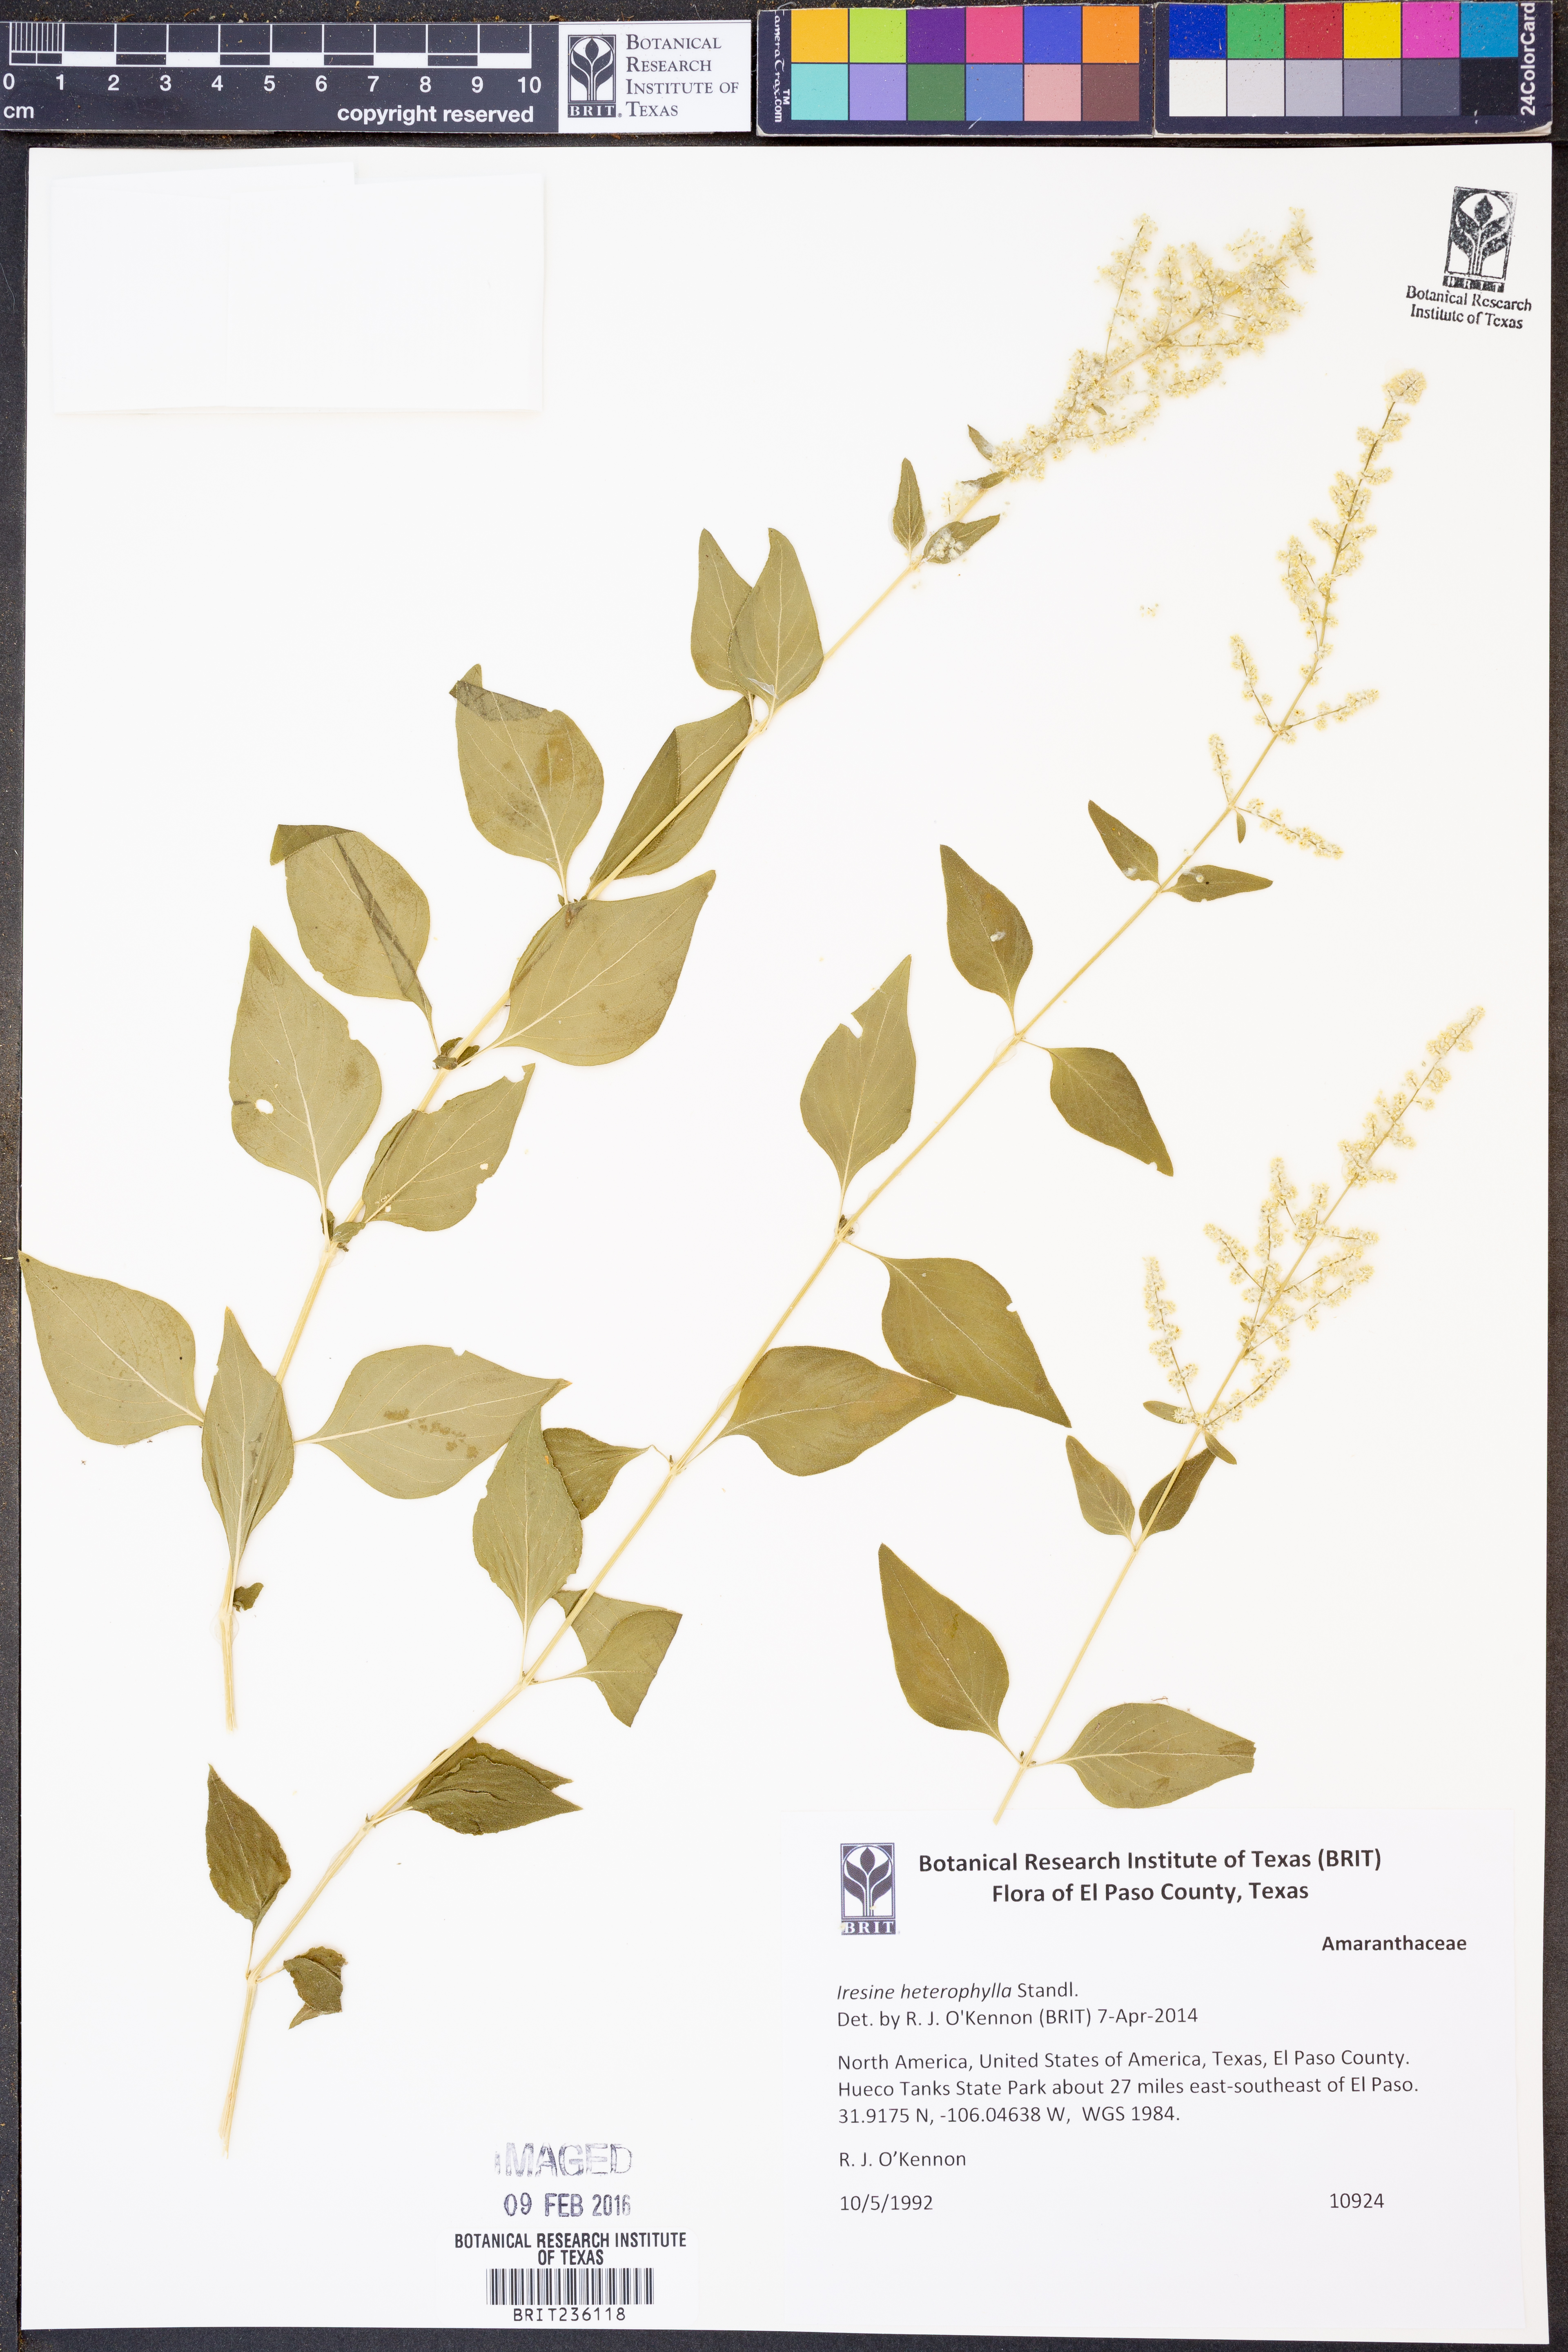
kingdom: Plantae
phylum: Tracheophyta
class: Magnoliopsida
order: Caryophyllales
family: Amaranthaceae
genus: Iresine
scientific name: Iresine heterophylla
